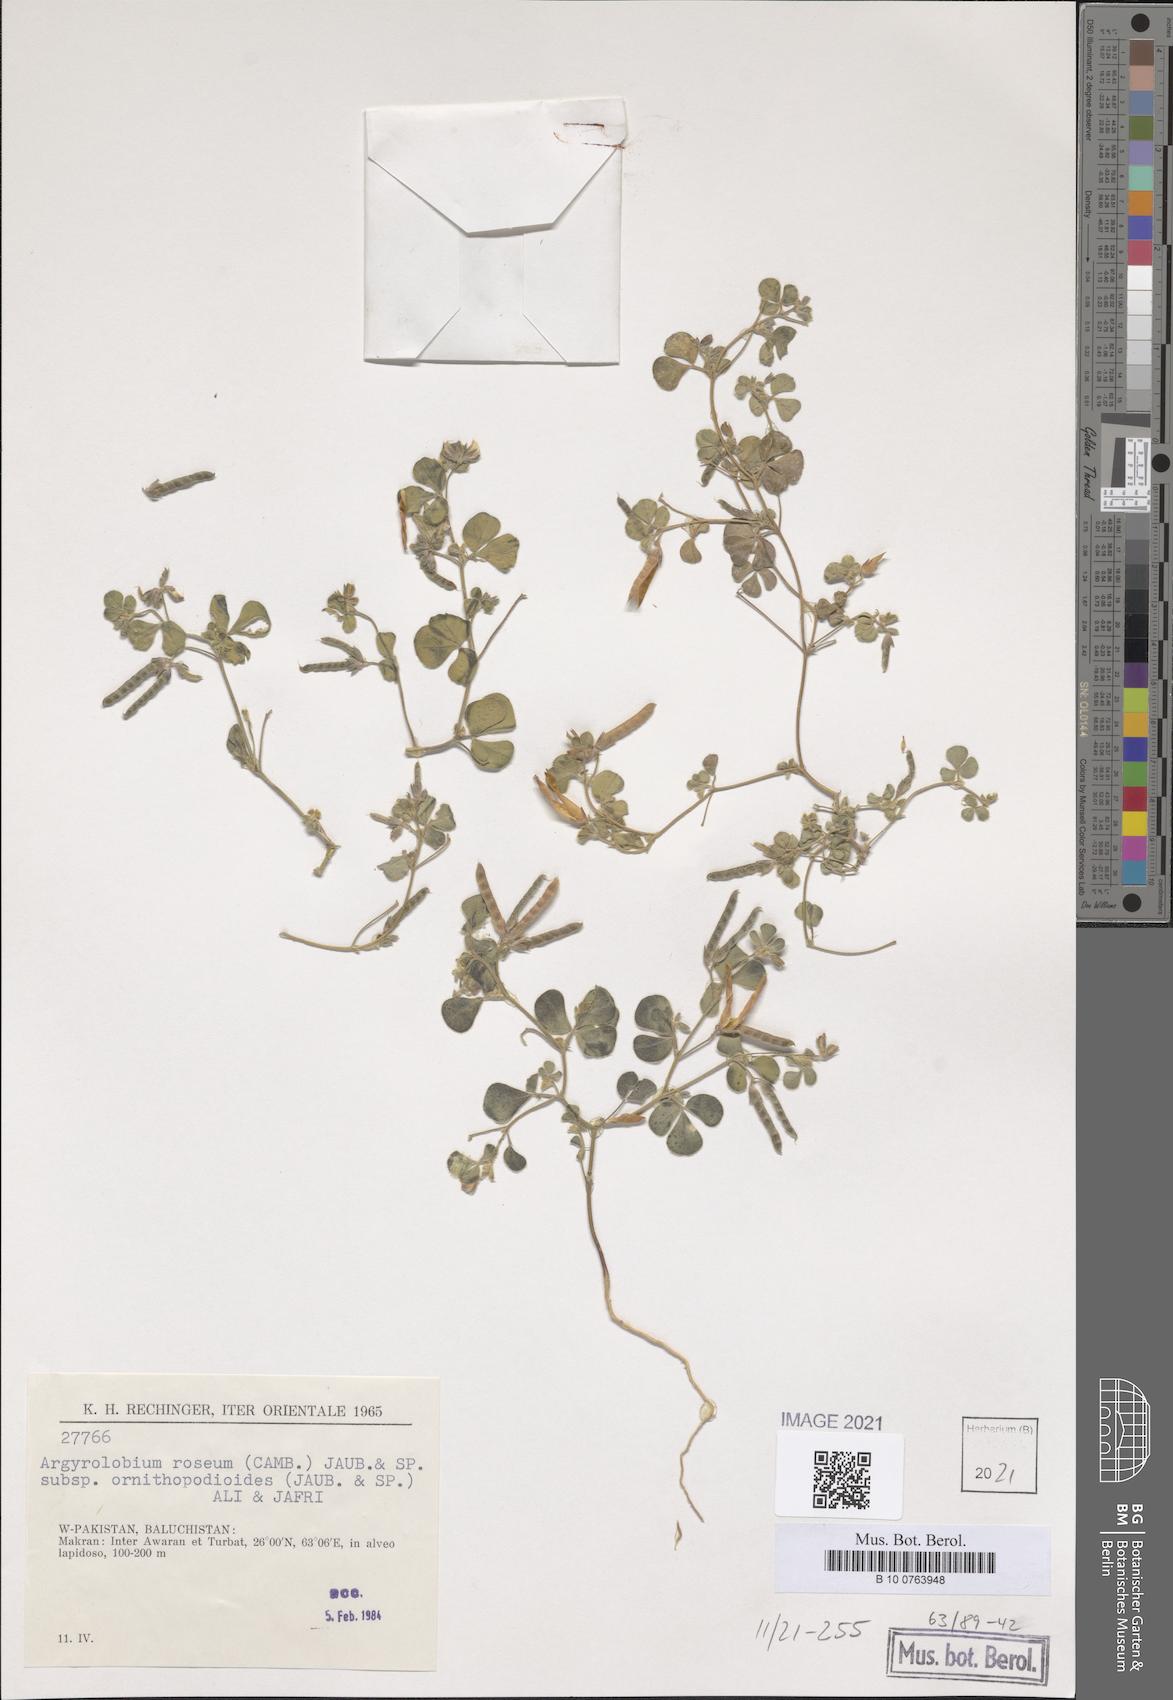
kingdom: Plantae
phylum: Tracheophyta
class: Magnoliopsida
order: Fabales
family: Fabaceae
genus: Argyrolobium
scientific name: Argyrolobium roseum
